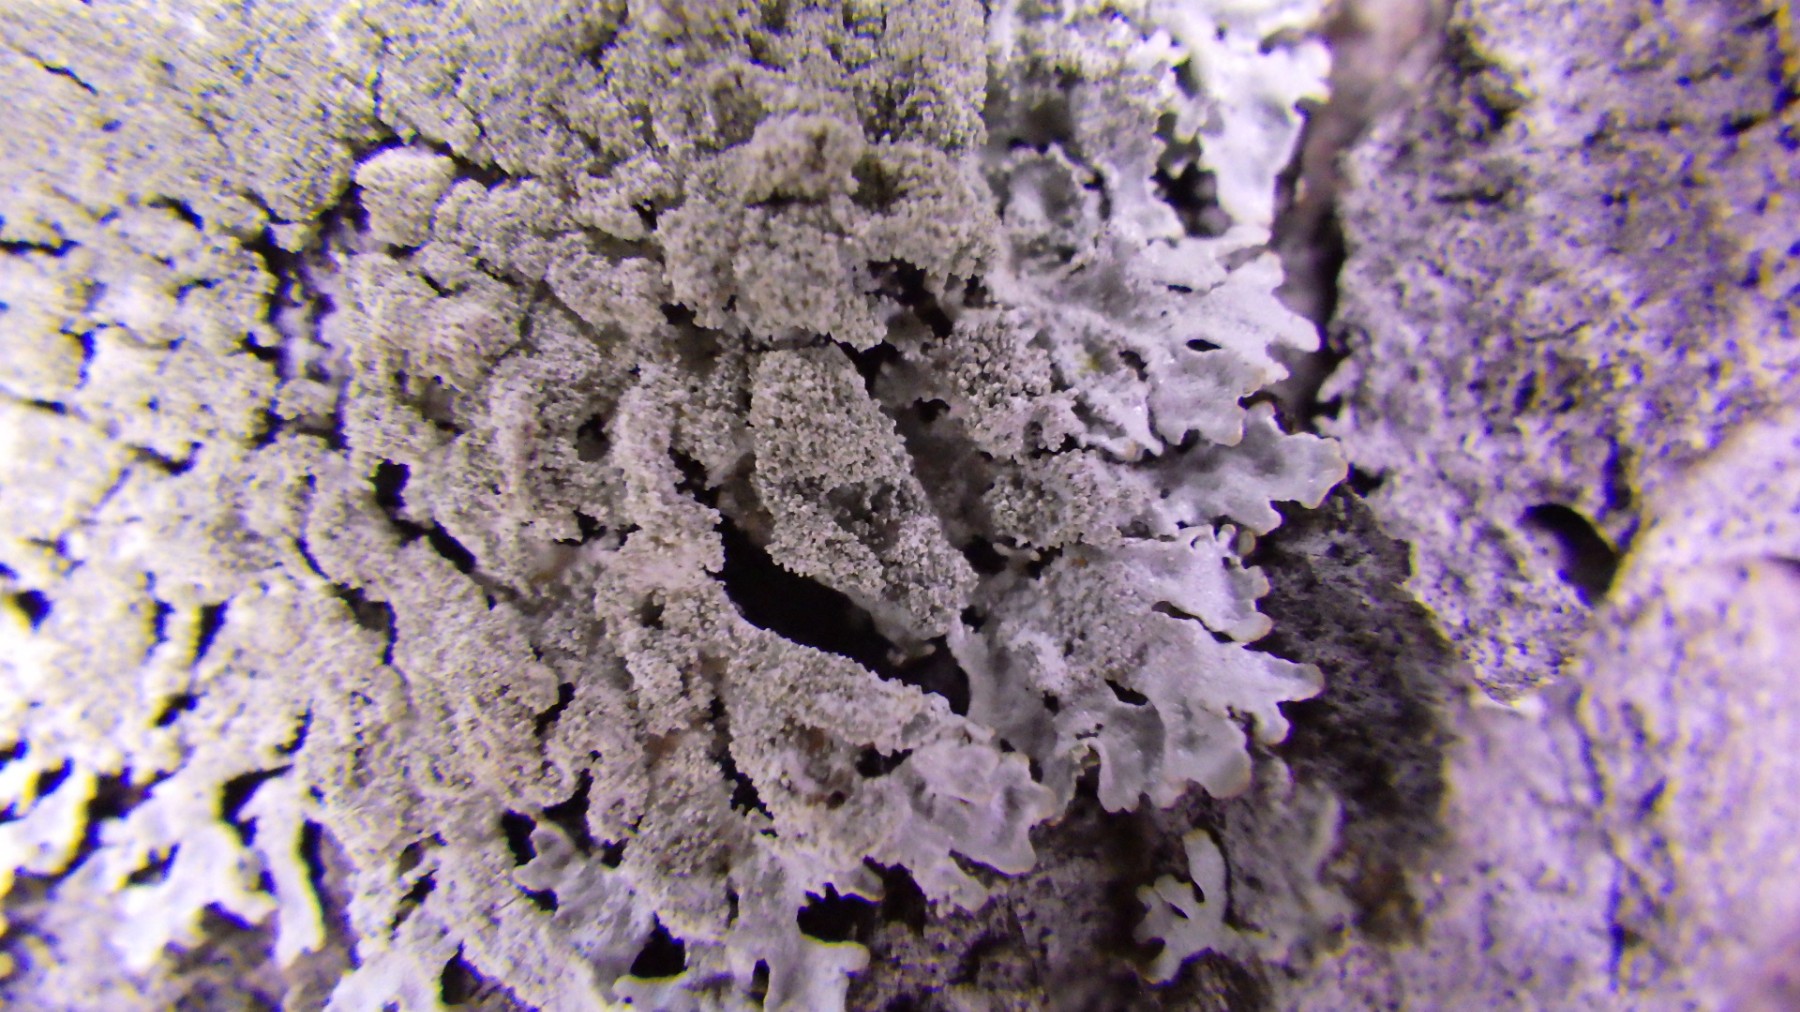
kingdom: Fungi
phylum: Ascomycota
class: Lecanoromycetes
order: Lecanorales
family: Parmeliaceae
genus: Imshaugia
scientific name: Imshaugia aleurites
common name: kliddet stolpelav
